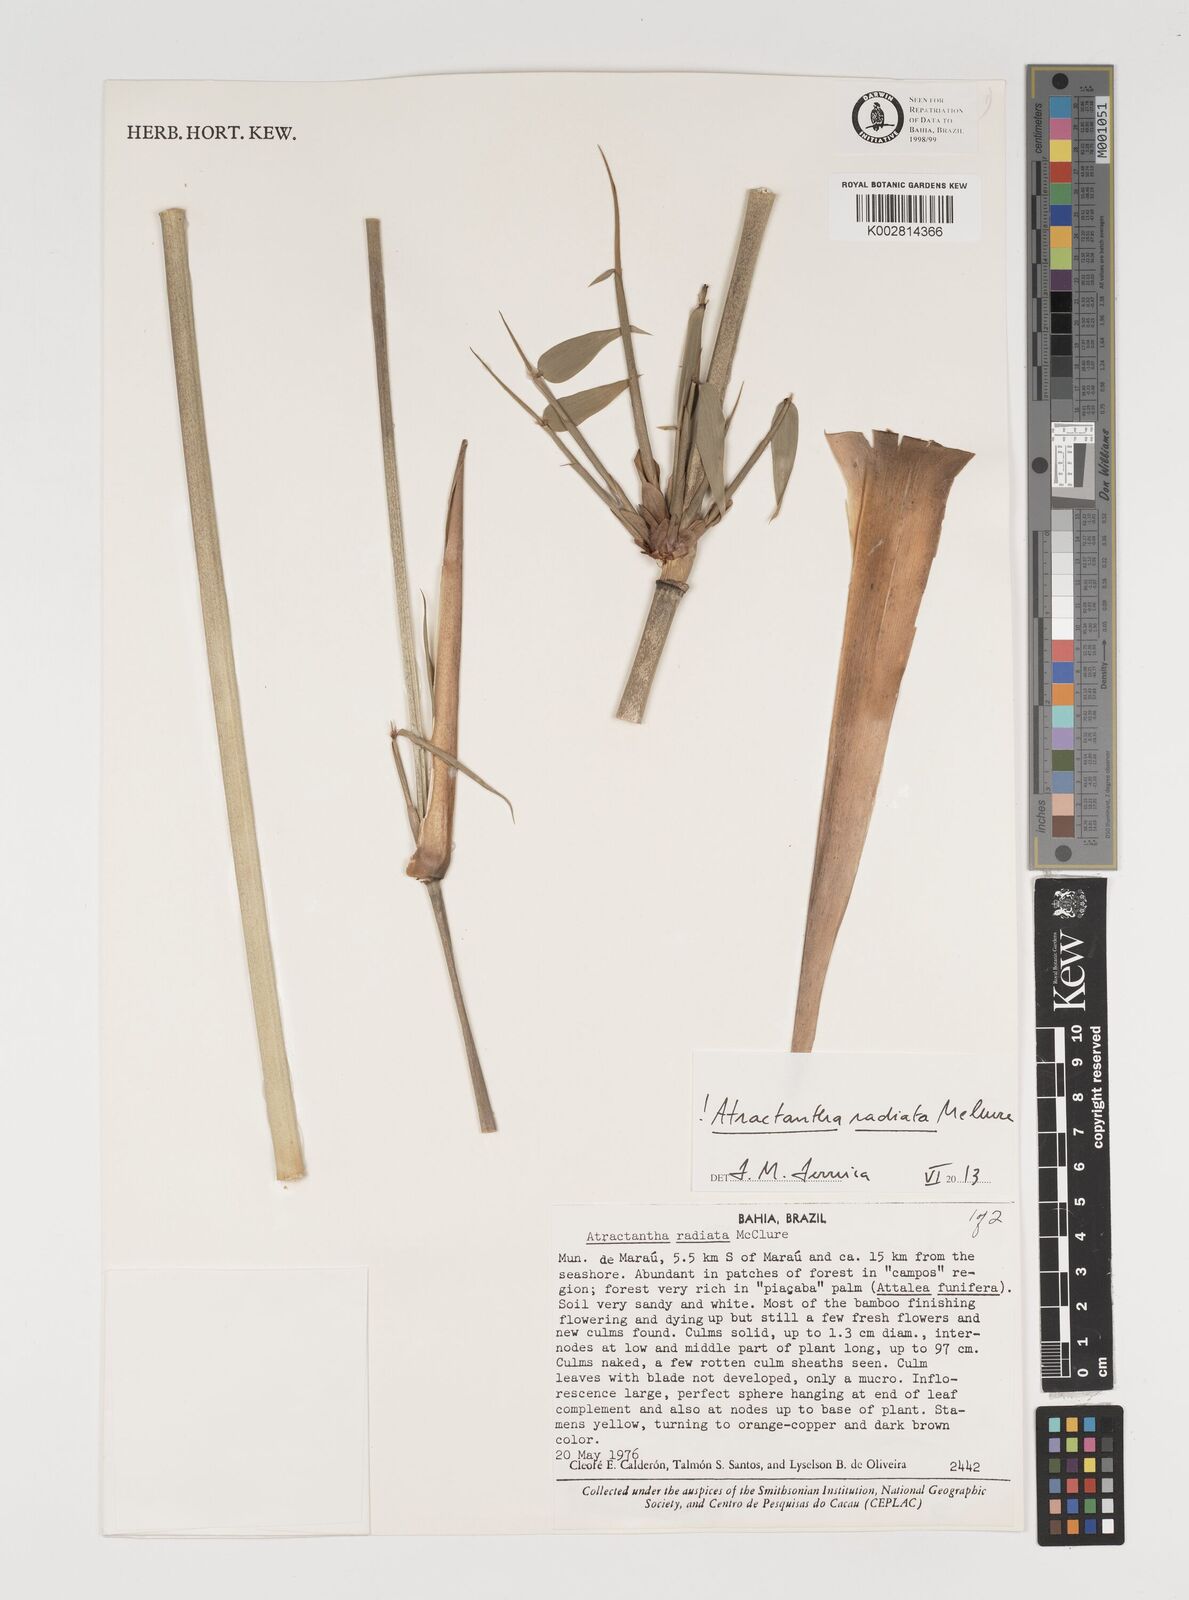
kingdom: Plantae
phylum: Tracheophyta
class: Liliopsida
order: Poales
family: Poaceae
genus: Atractantha
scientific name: Atractantha radiata
